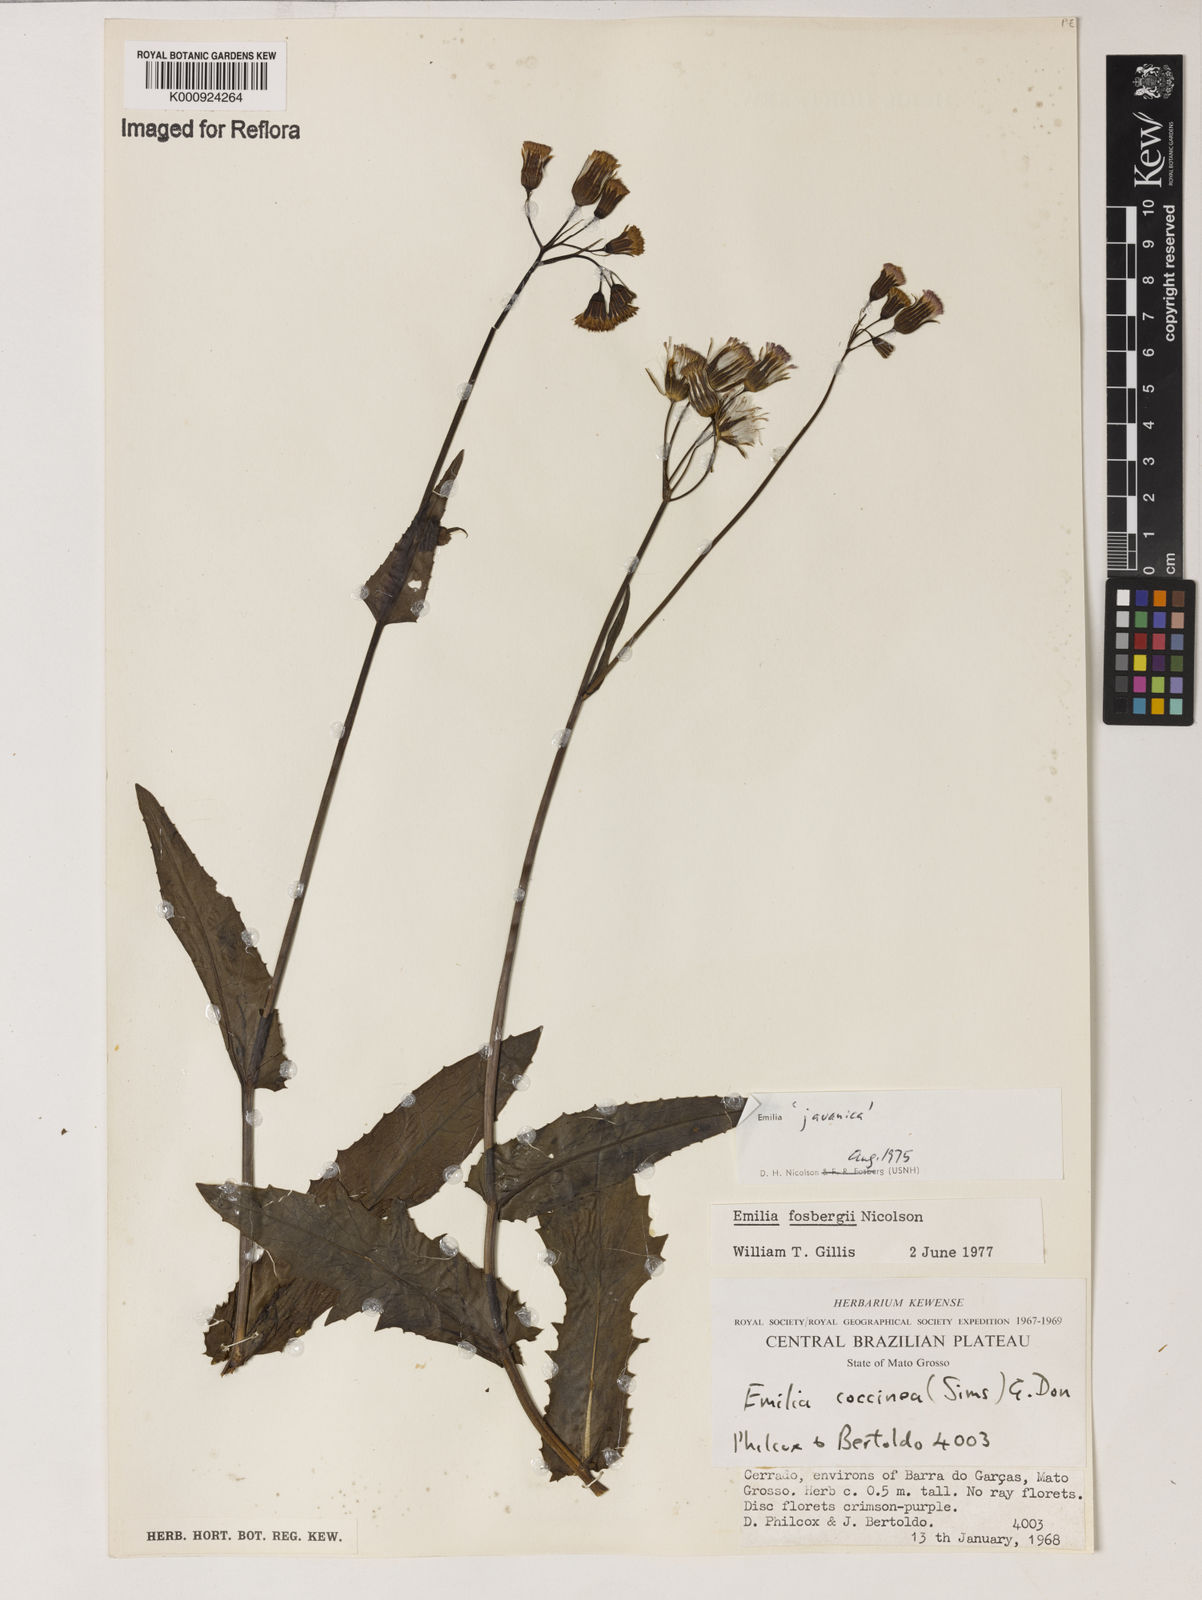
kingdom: Plantae
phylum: Tracheophyta
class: Magnoliopsida
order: Asterales
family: Asteraceae
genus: Emilia
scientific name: Emilia fosbergii
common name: Florida tasselflower
